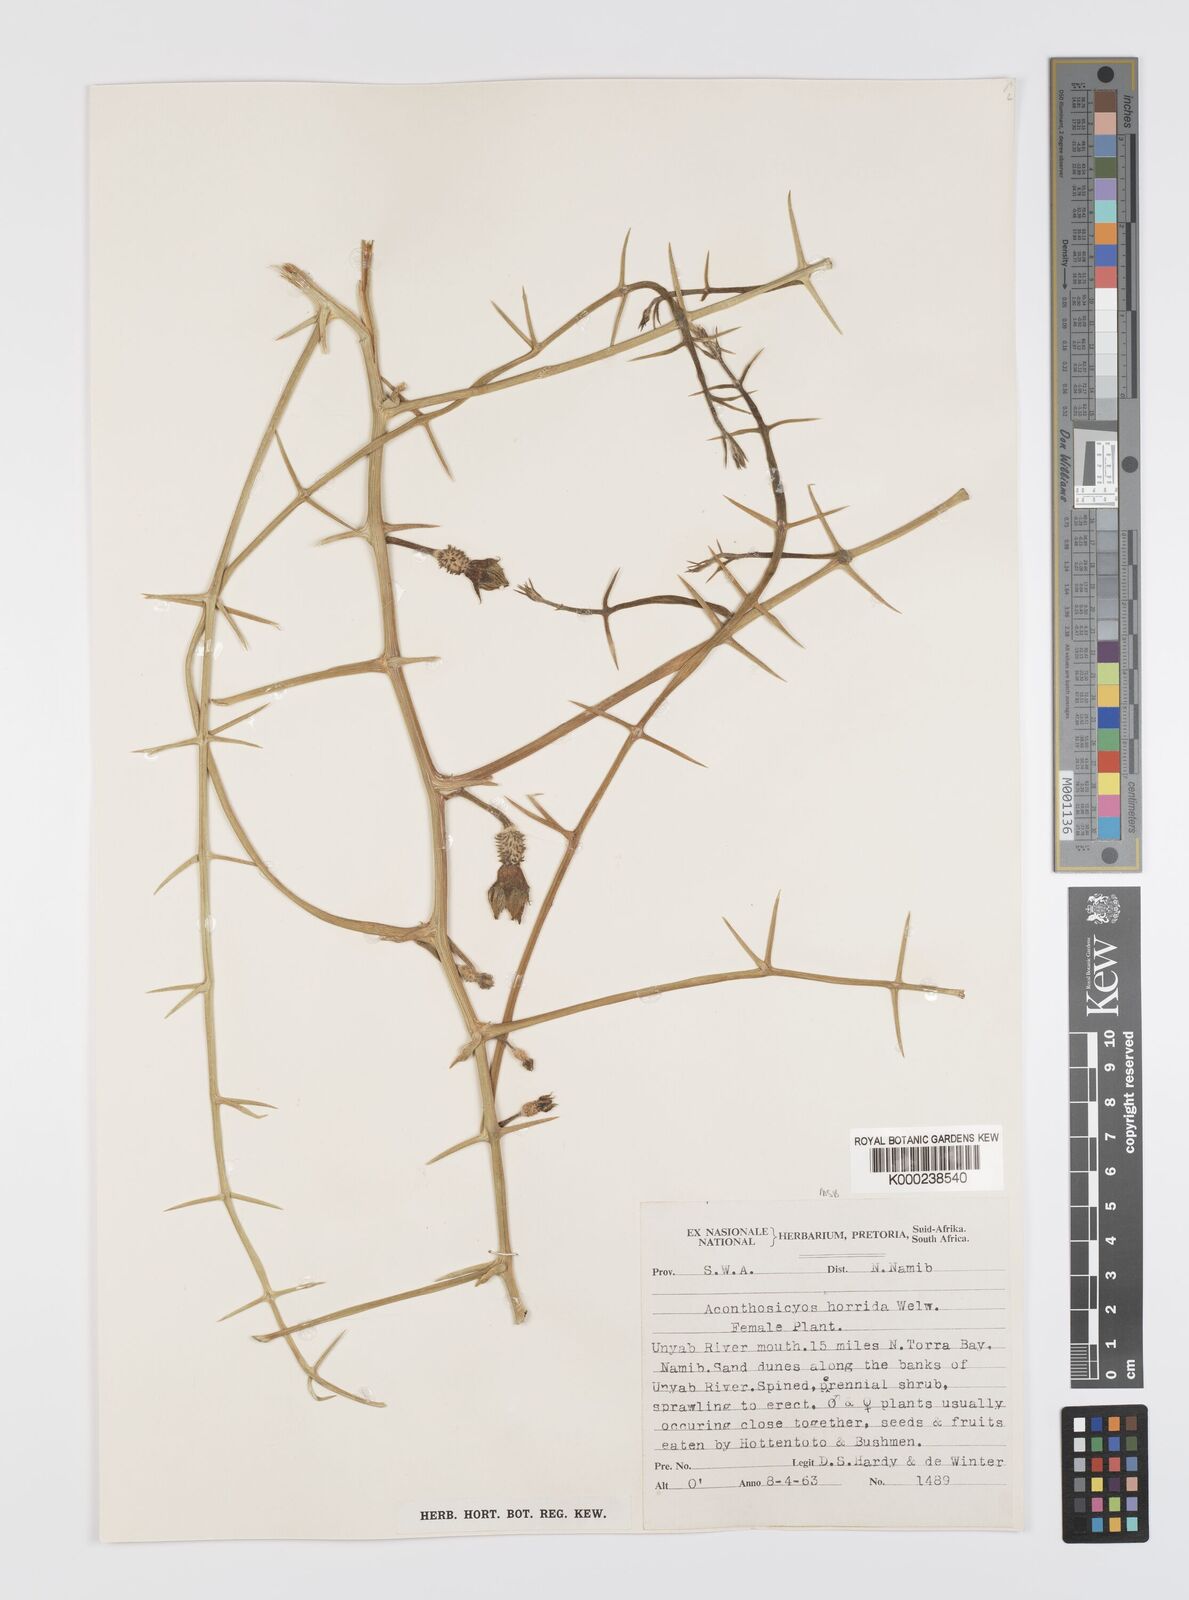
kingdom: Plantae
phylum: Tracheophyta
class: Magnoliopsida
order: Cucurbitales
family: Cucurbitaceae
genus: Acanthosicyos
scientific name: Acanthosicyos horridus
